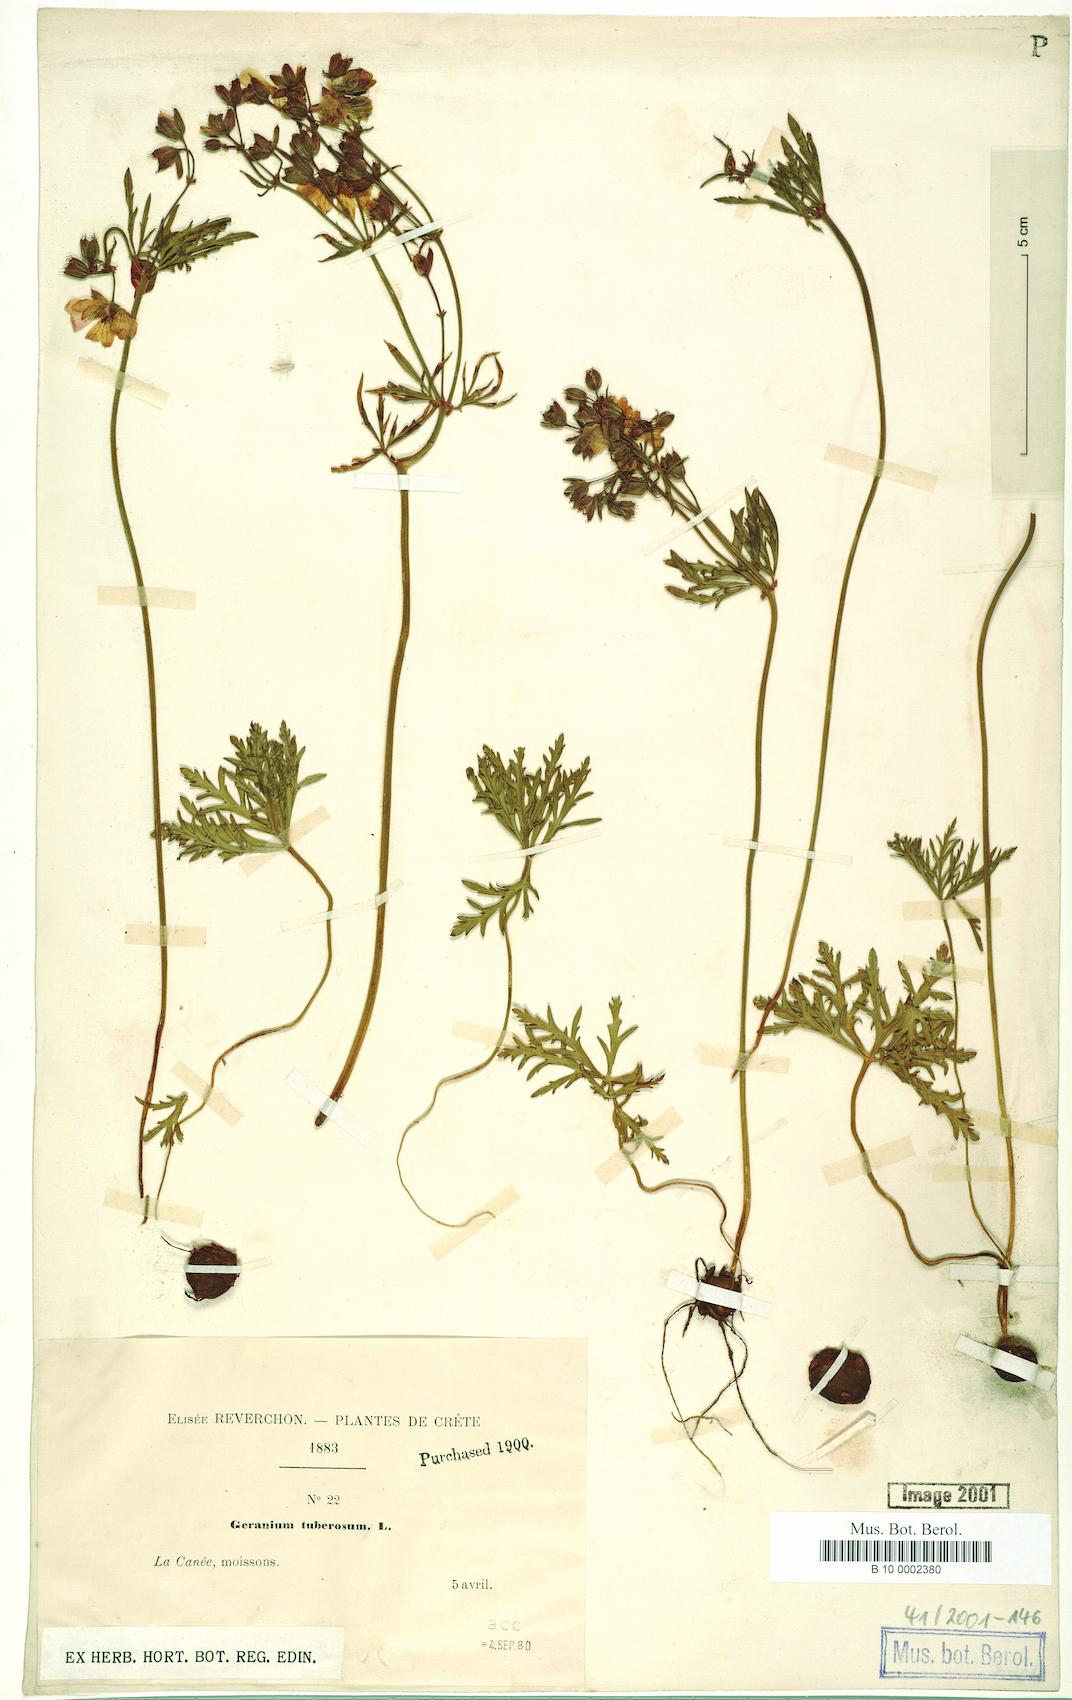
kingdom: Plantae
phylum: Tracheophyta
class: Magnoliopsida
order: Geraniales
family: Geraniaceae
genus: Geranium
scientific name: Geranium tuberosum
